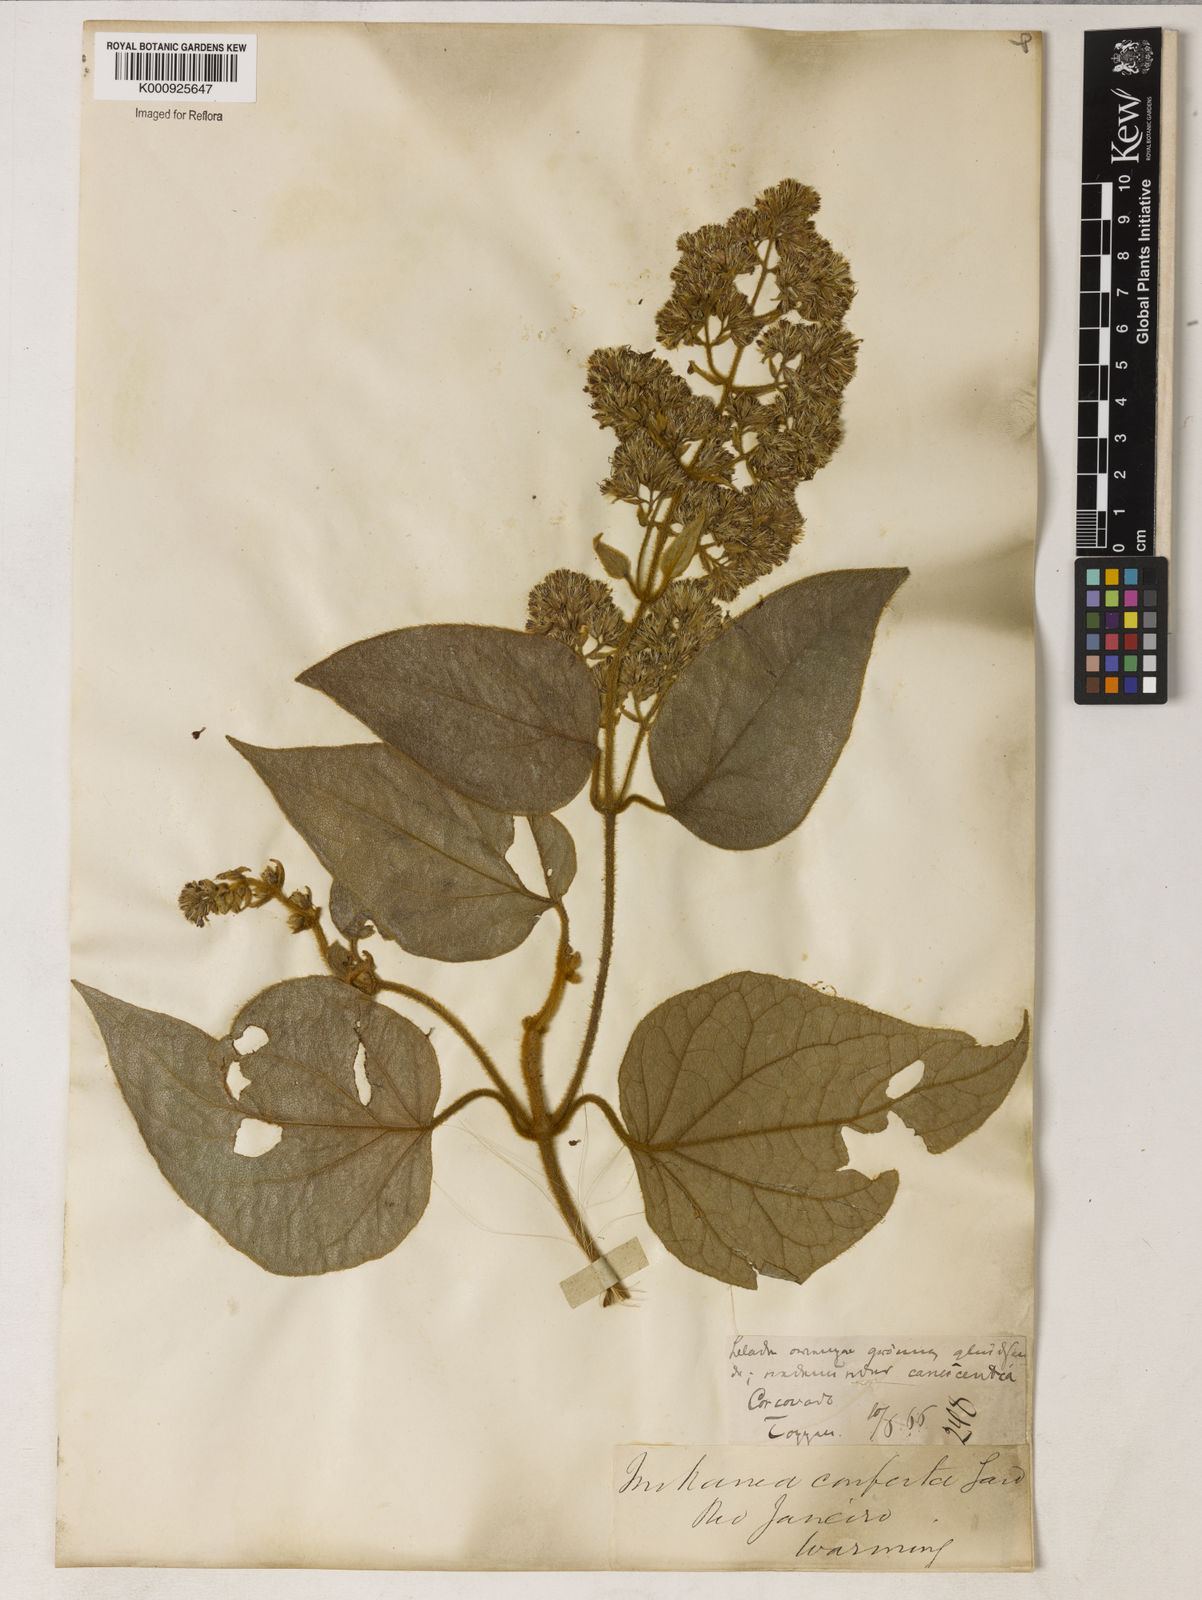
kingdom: Plantae
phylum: Tracheophyta
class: Magnoliopsida
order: Asterales
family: Asteraceae
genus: Mikania
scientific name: Mikania congesta
